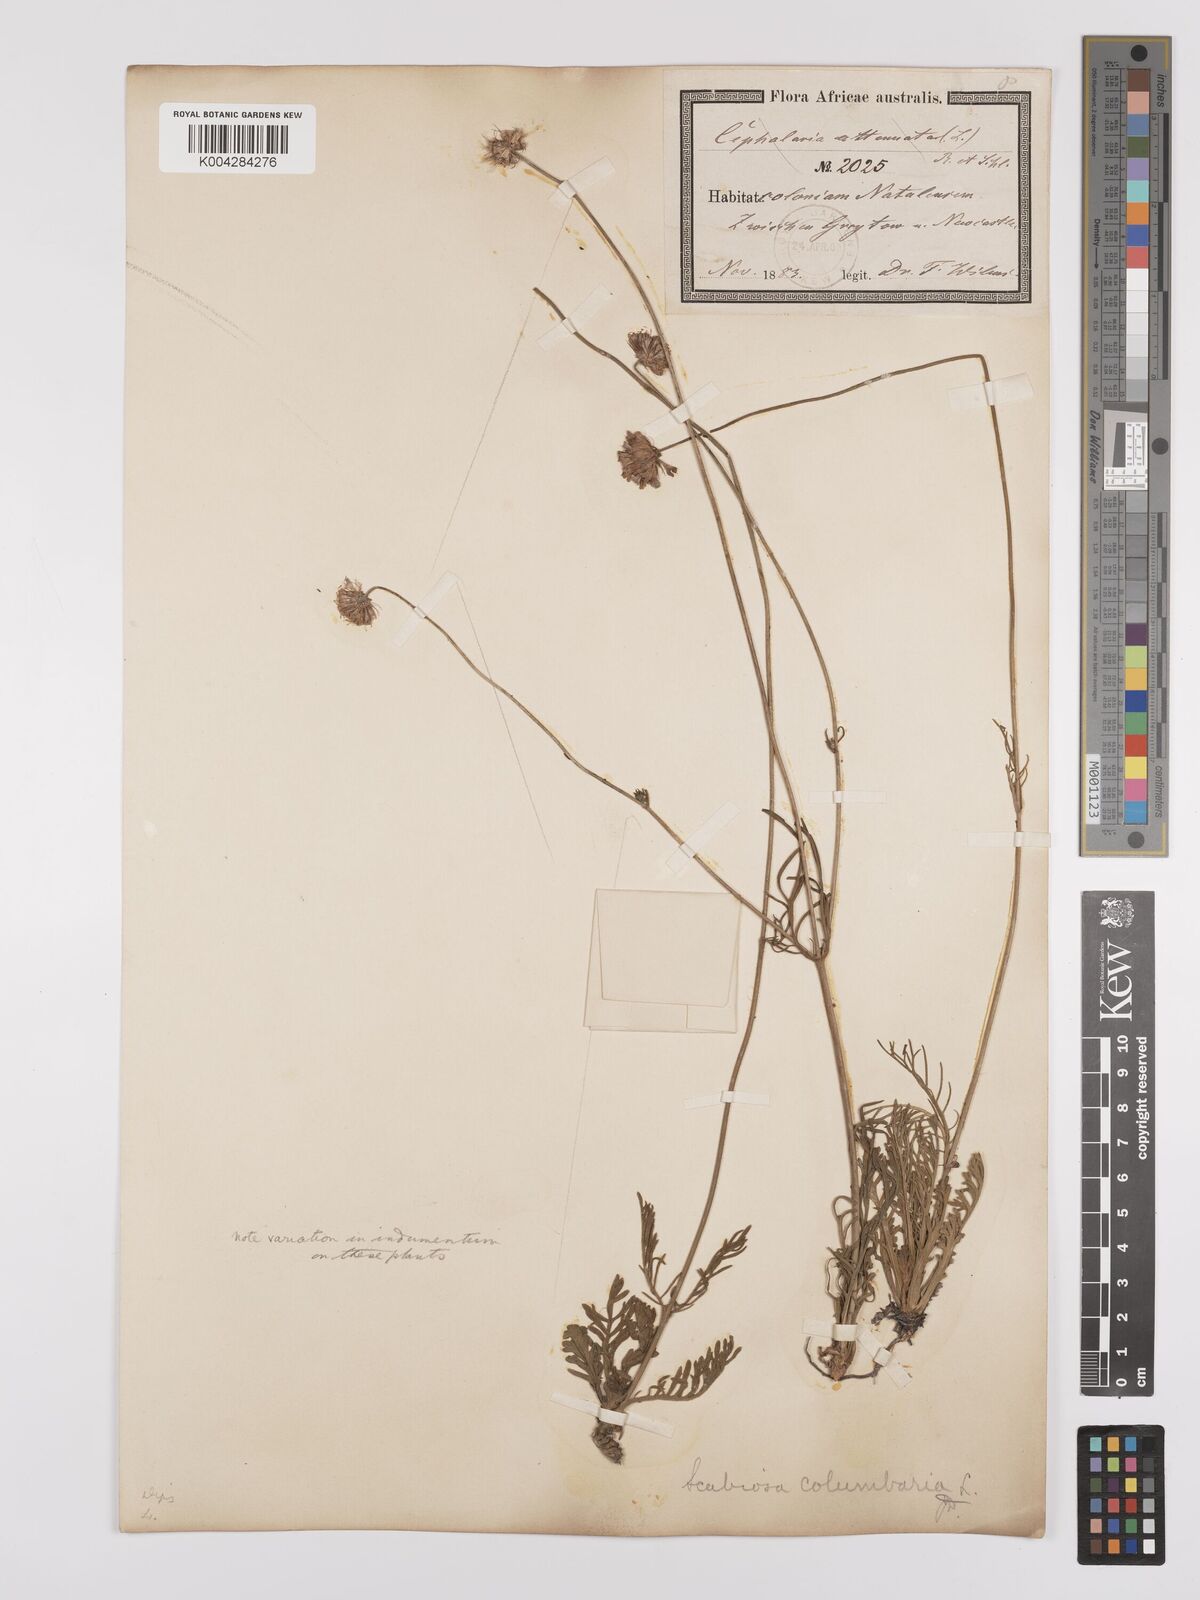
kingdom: Plantae
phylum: Tracheophyta
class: Magnoliopsida
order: Dipsacales
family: Caprifoliaceae
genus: Scabiosa
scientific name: Scabiosa columbaria
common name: Small scabious
